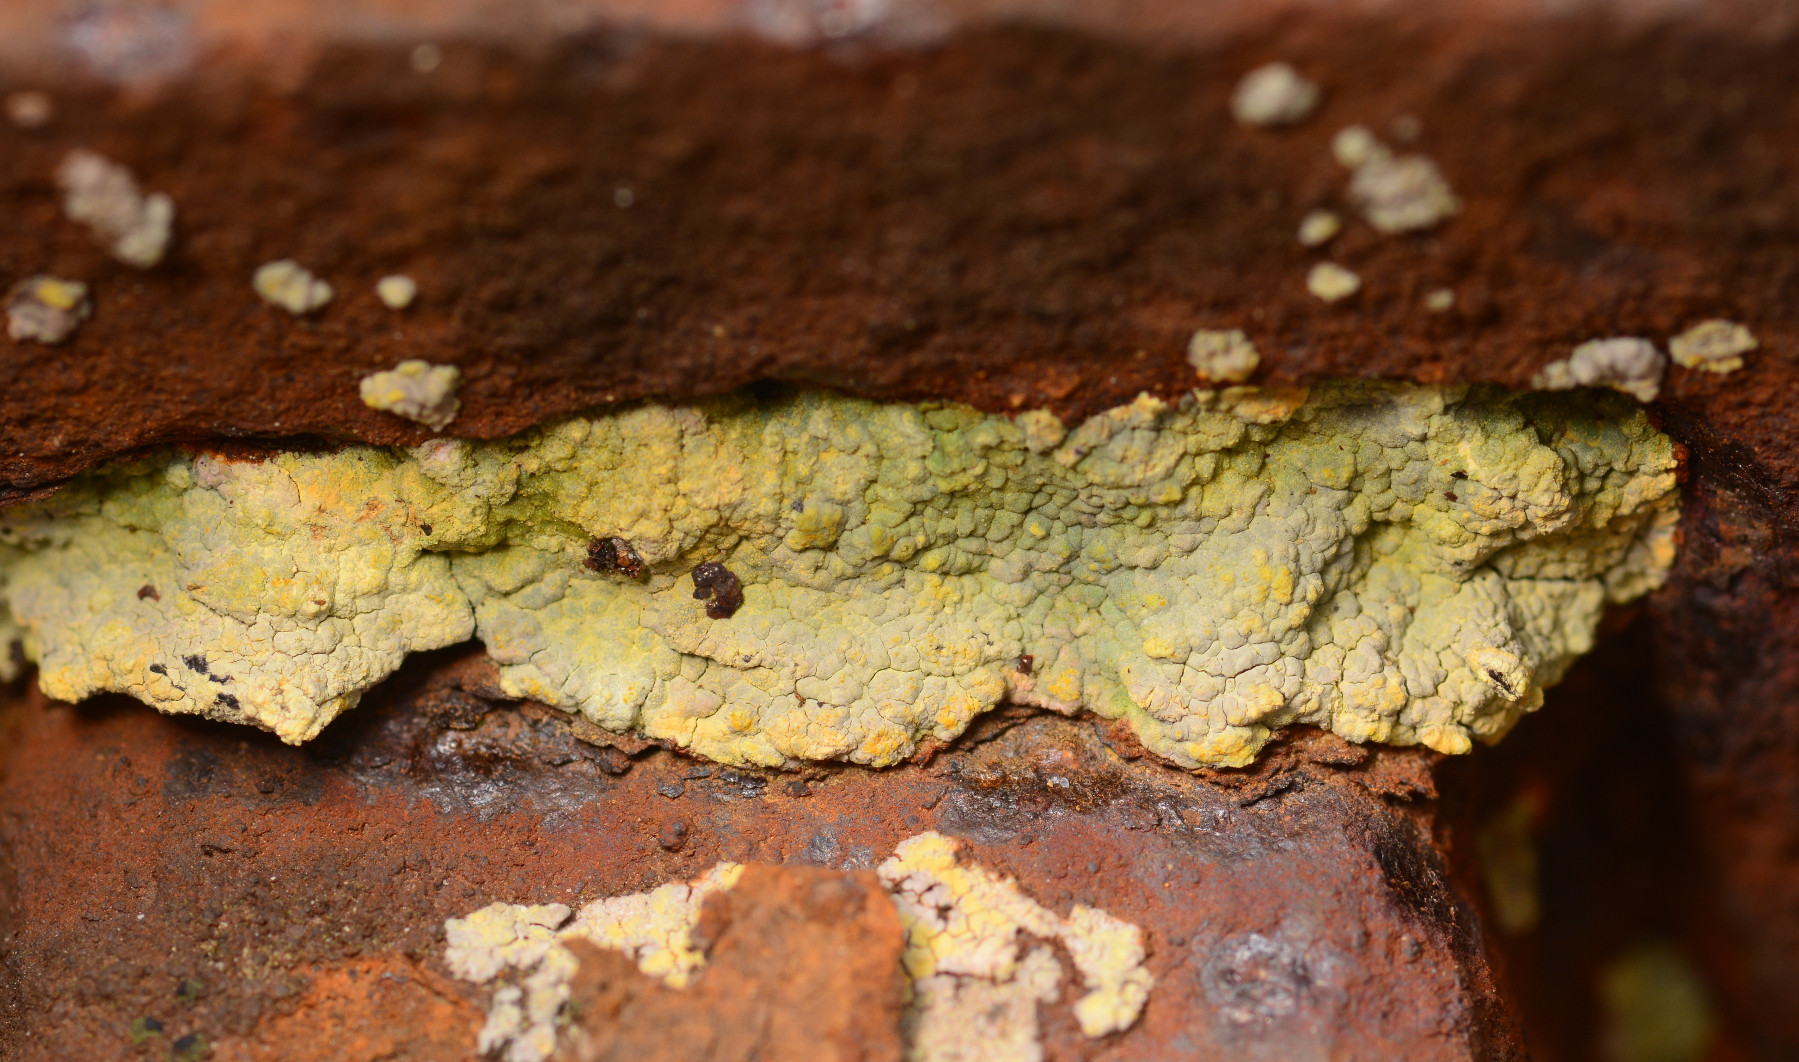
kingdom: Fungi
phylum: Ascomycota
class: Lecanoromycetes
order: Baeomycetales
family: Trapeliaceae
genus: Kleopowiella
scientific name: Kleopowiella placodioides
